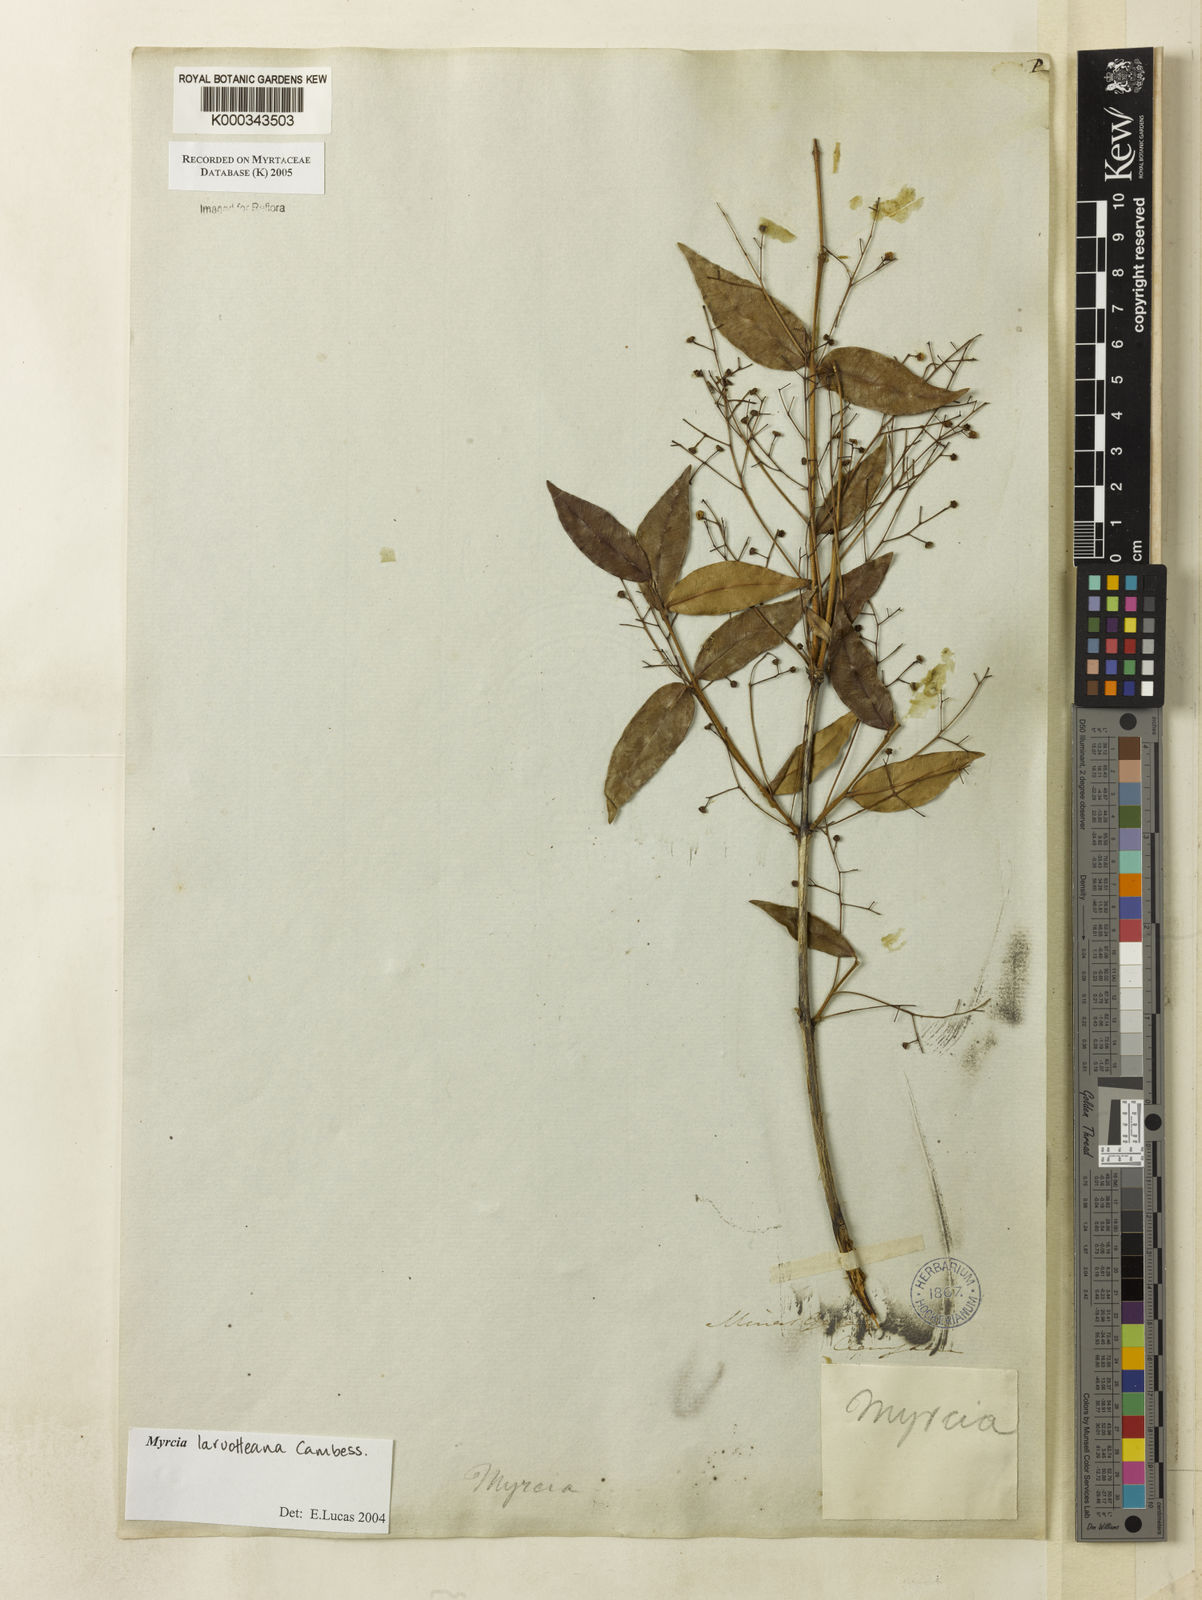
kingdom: Plantae
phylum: Tracheophyta
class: Magnoliopsida
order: Myrtales
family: Myrtaceae
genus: Myrcia
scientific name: Myrcia laruotteana
